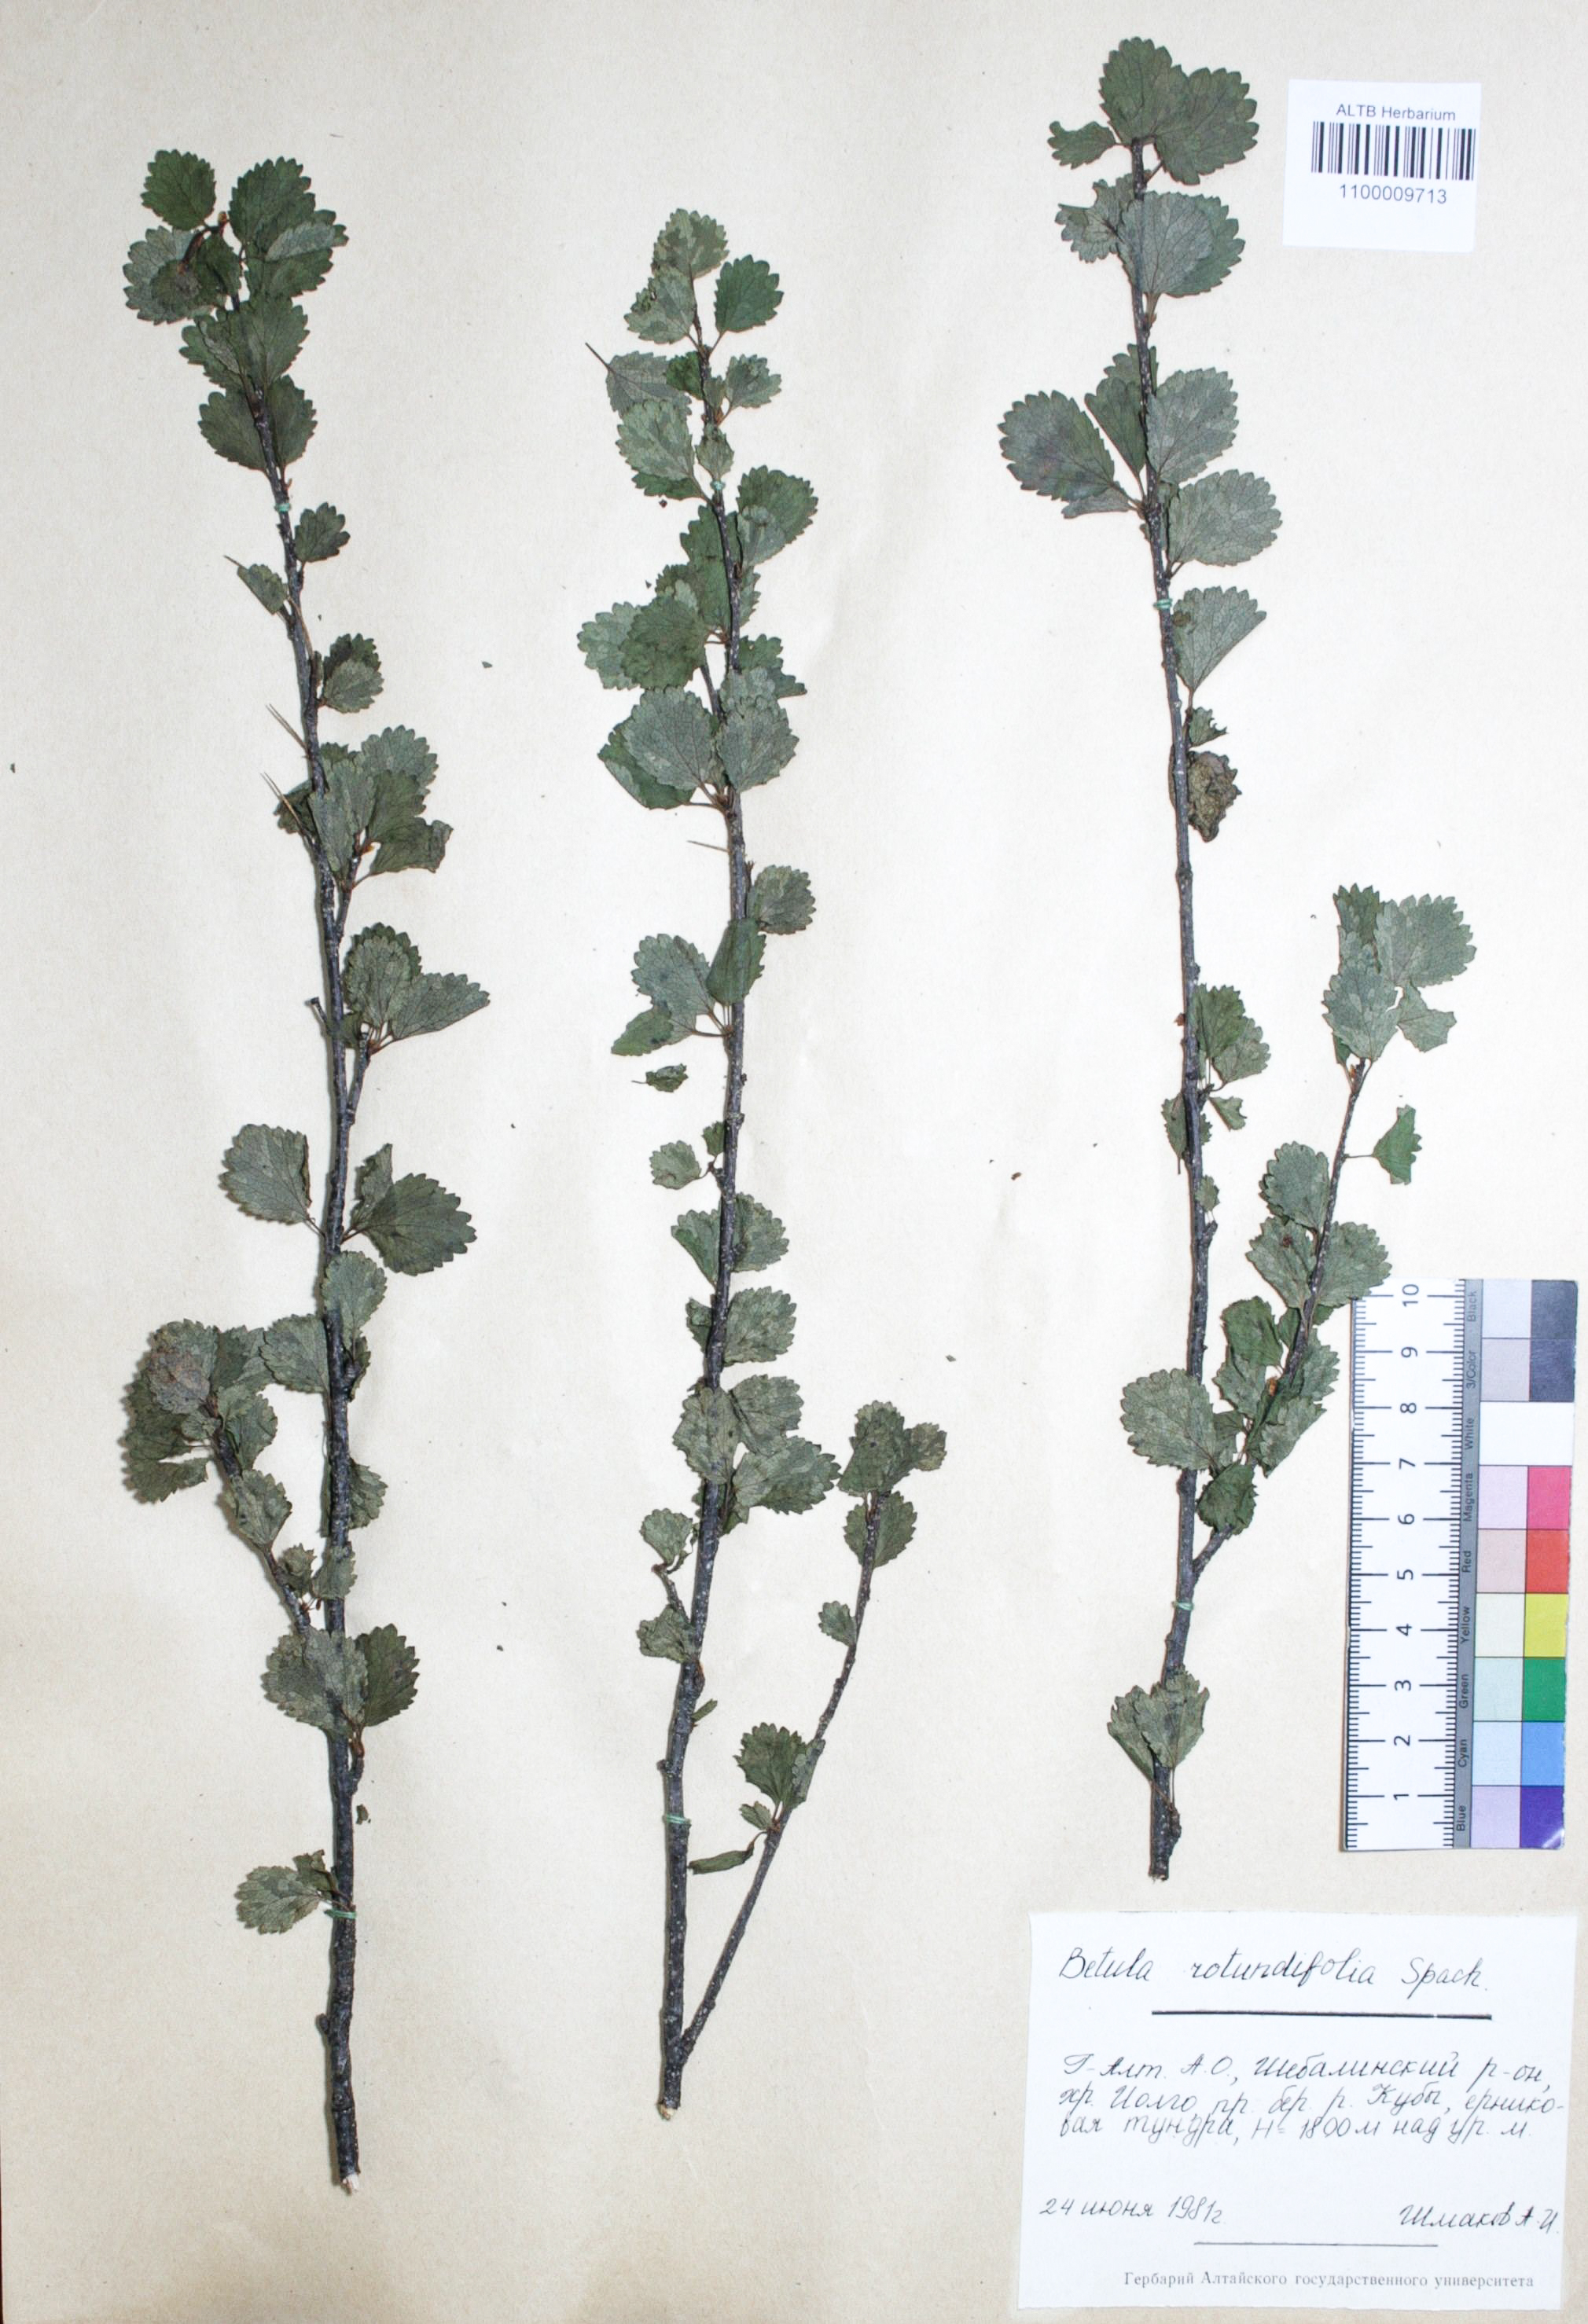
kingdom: Plantae
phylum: Tracheophyta
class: Magnoliopsida
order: Fagales
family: Betulaceae
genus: Betula
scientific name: Betula glandulosa
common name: Dwarf birch
